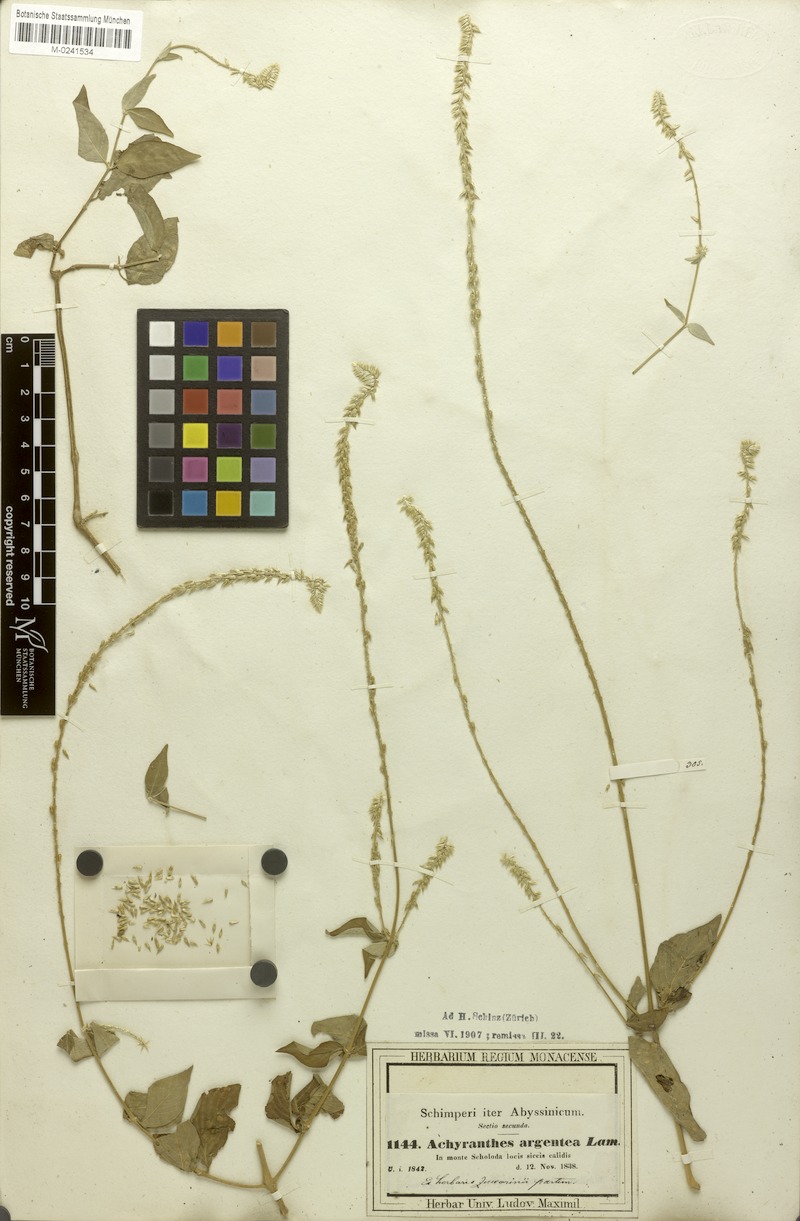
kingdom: Plantae
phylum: Tracheophyta
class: Magnoliopsida
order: Caryophyllales
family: Amaranthaceae
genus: Achyranthes
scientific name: Achyranthes aspera
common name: Devil's horsewhip
